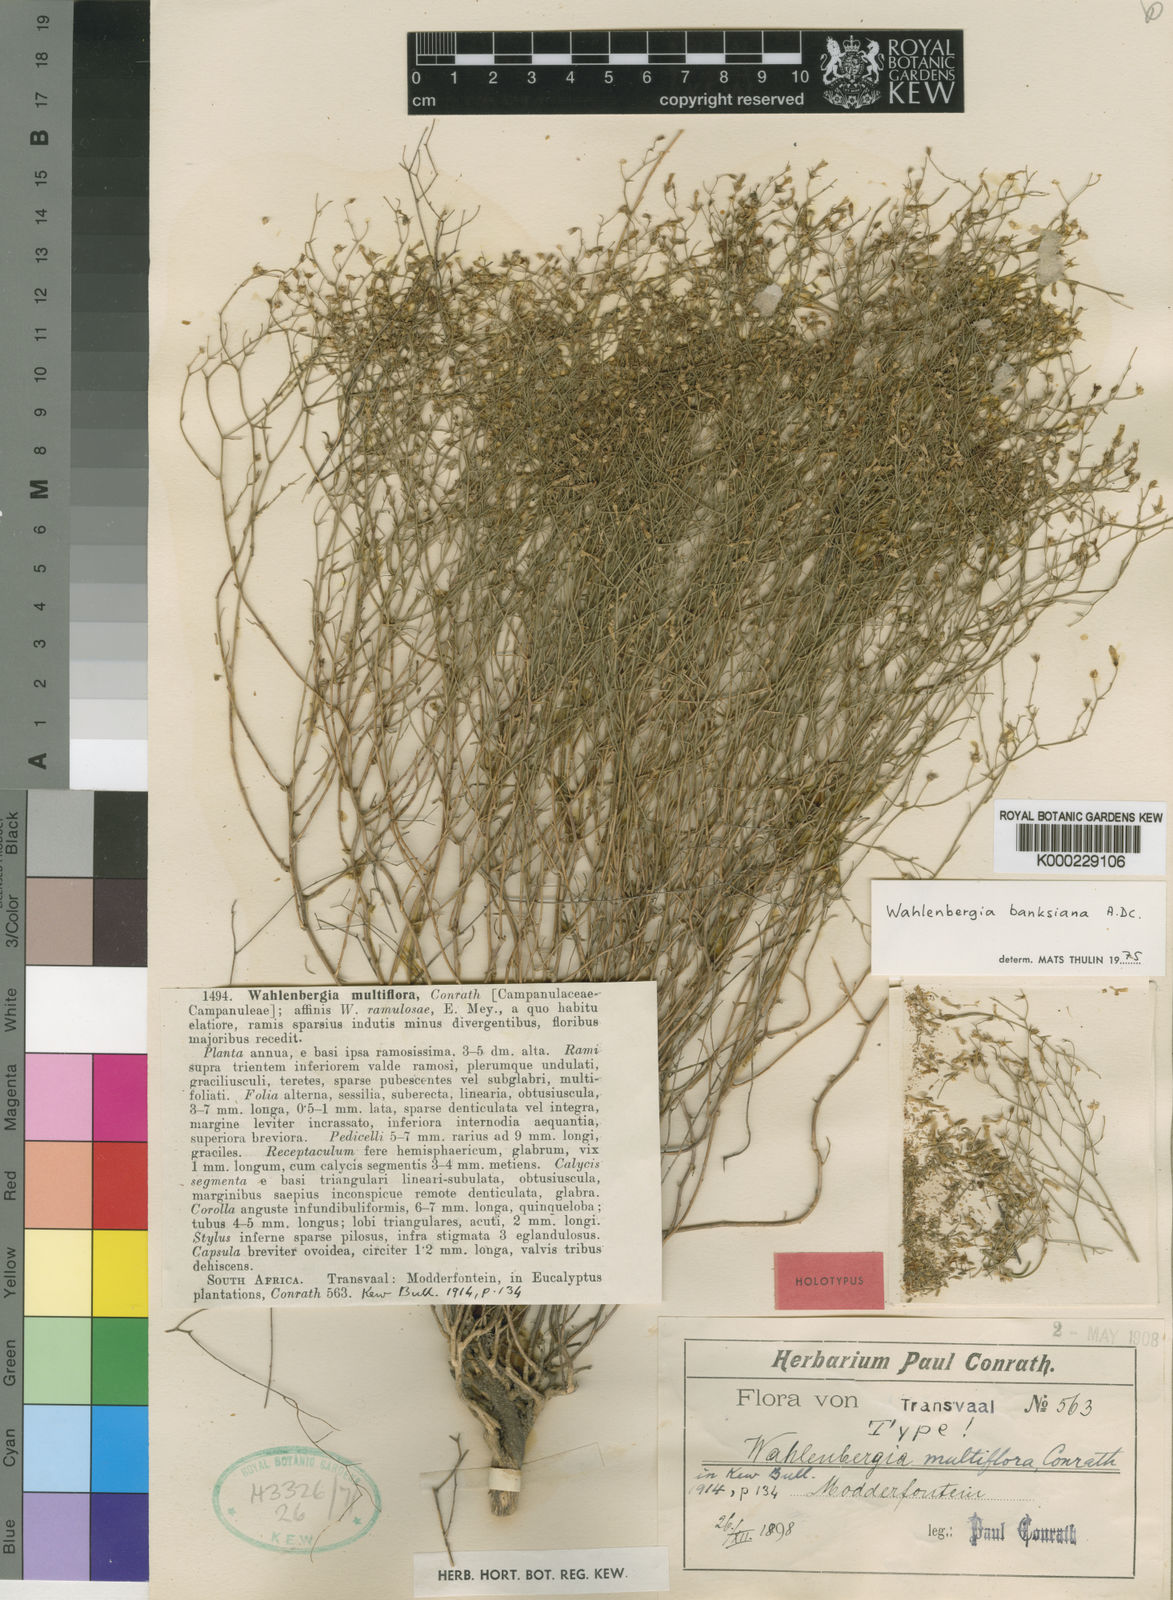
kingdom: Plantae
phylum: Tracheophyta
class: Magnoliopsida
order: Asterales
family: Campanulaceae
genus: Wahlenbergia
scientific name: Wahlenbergia banksiana
